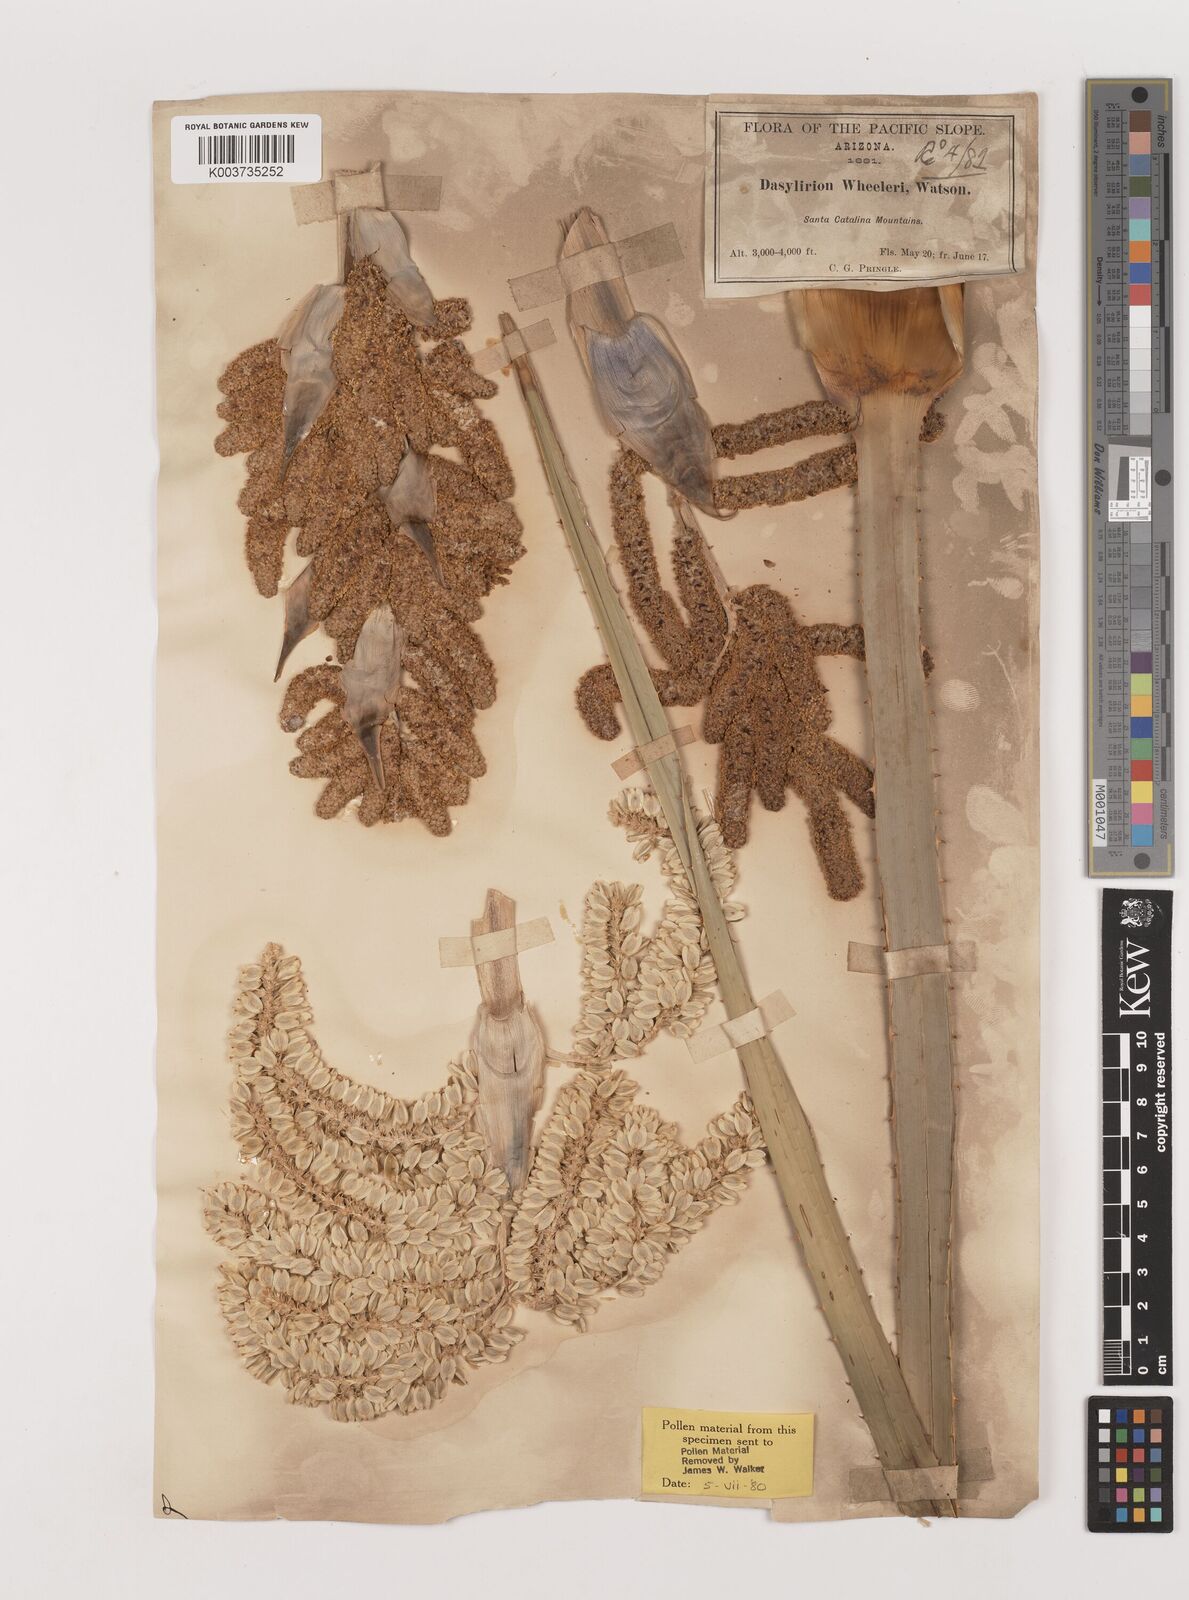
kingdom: Plantae
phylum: Tracheophyta
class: Liliopsida
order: Asparagales
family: Asparagaceae
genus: Dasylirion
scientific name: Dasylirion wheeleri
